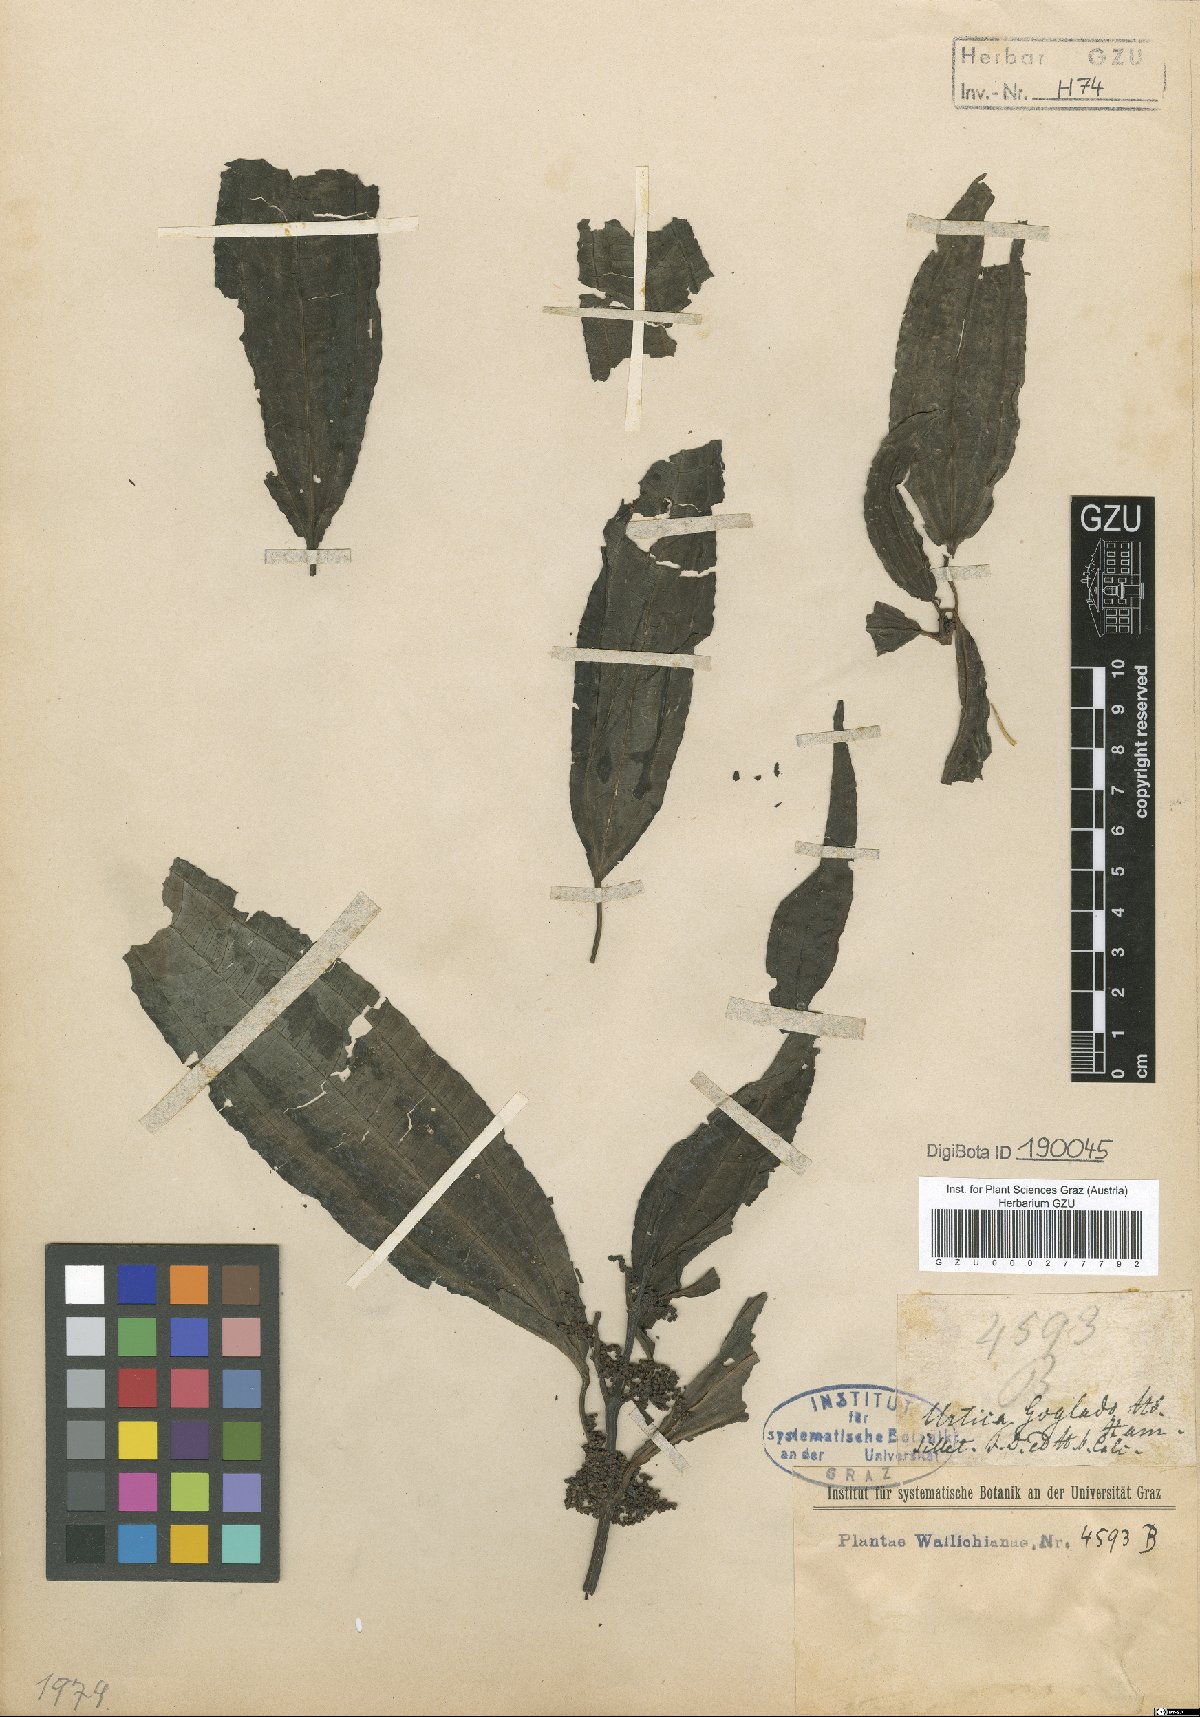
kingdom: Plantae
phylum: Tracheophyta
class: Magnoliopsida
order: Rosales
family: Urticaceae
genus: Pilea
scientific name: Pilea glaberrima
